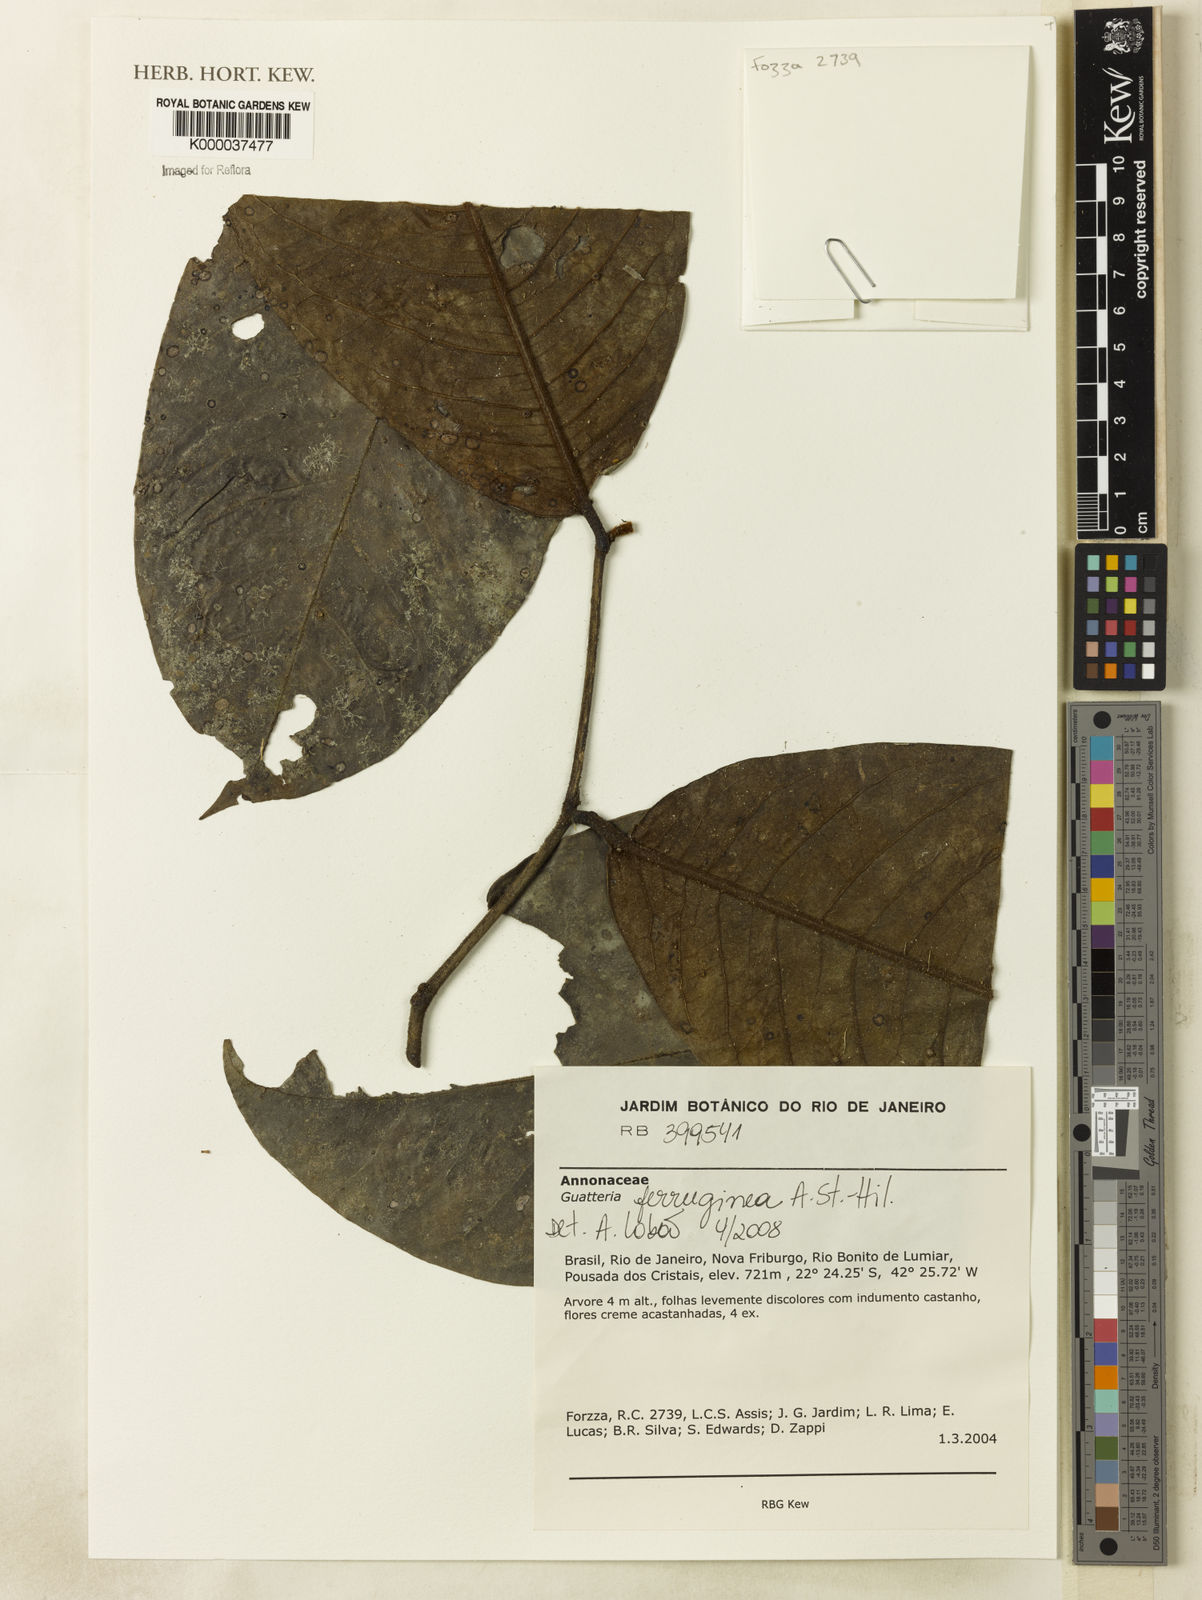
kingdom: Plantae
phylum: Tracheophyta
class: Magnoliopsida
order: Magnoliales
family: Annonaceae
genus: Guatteria
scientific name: Guatteria ferruginea
